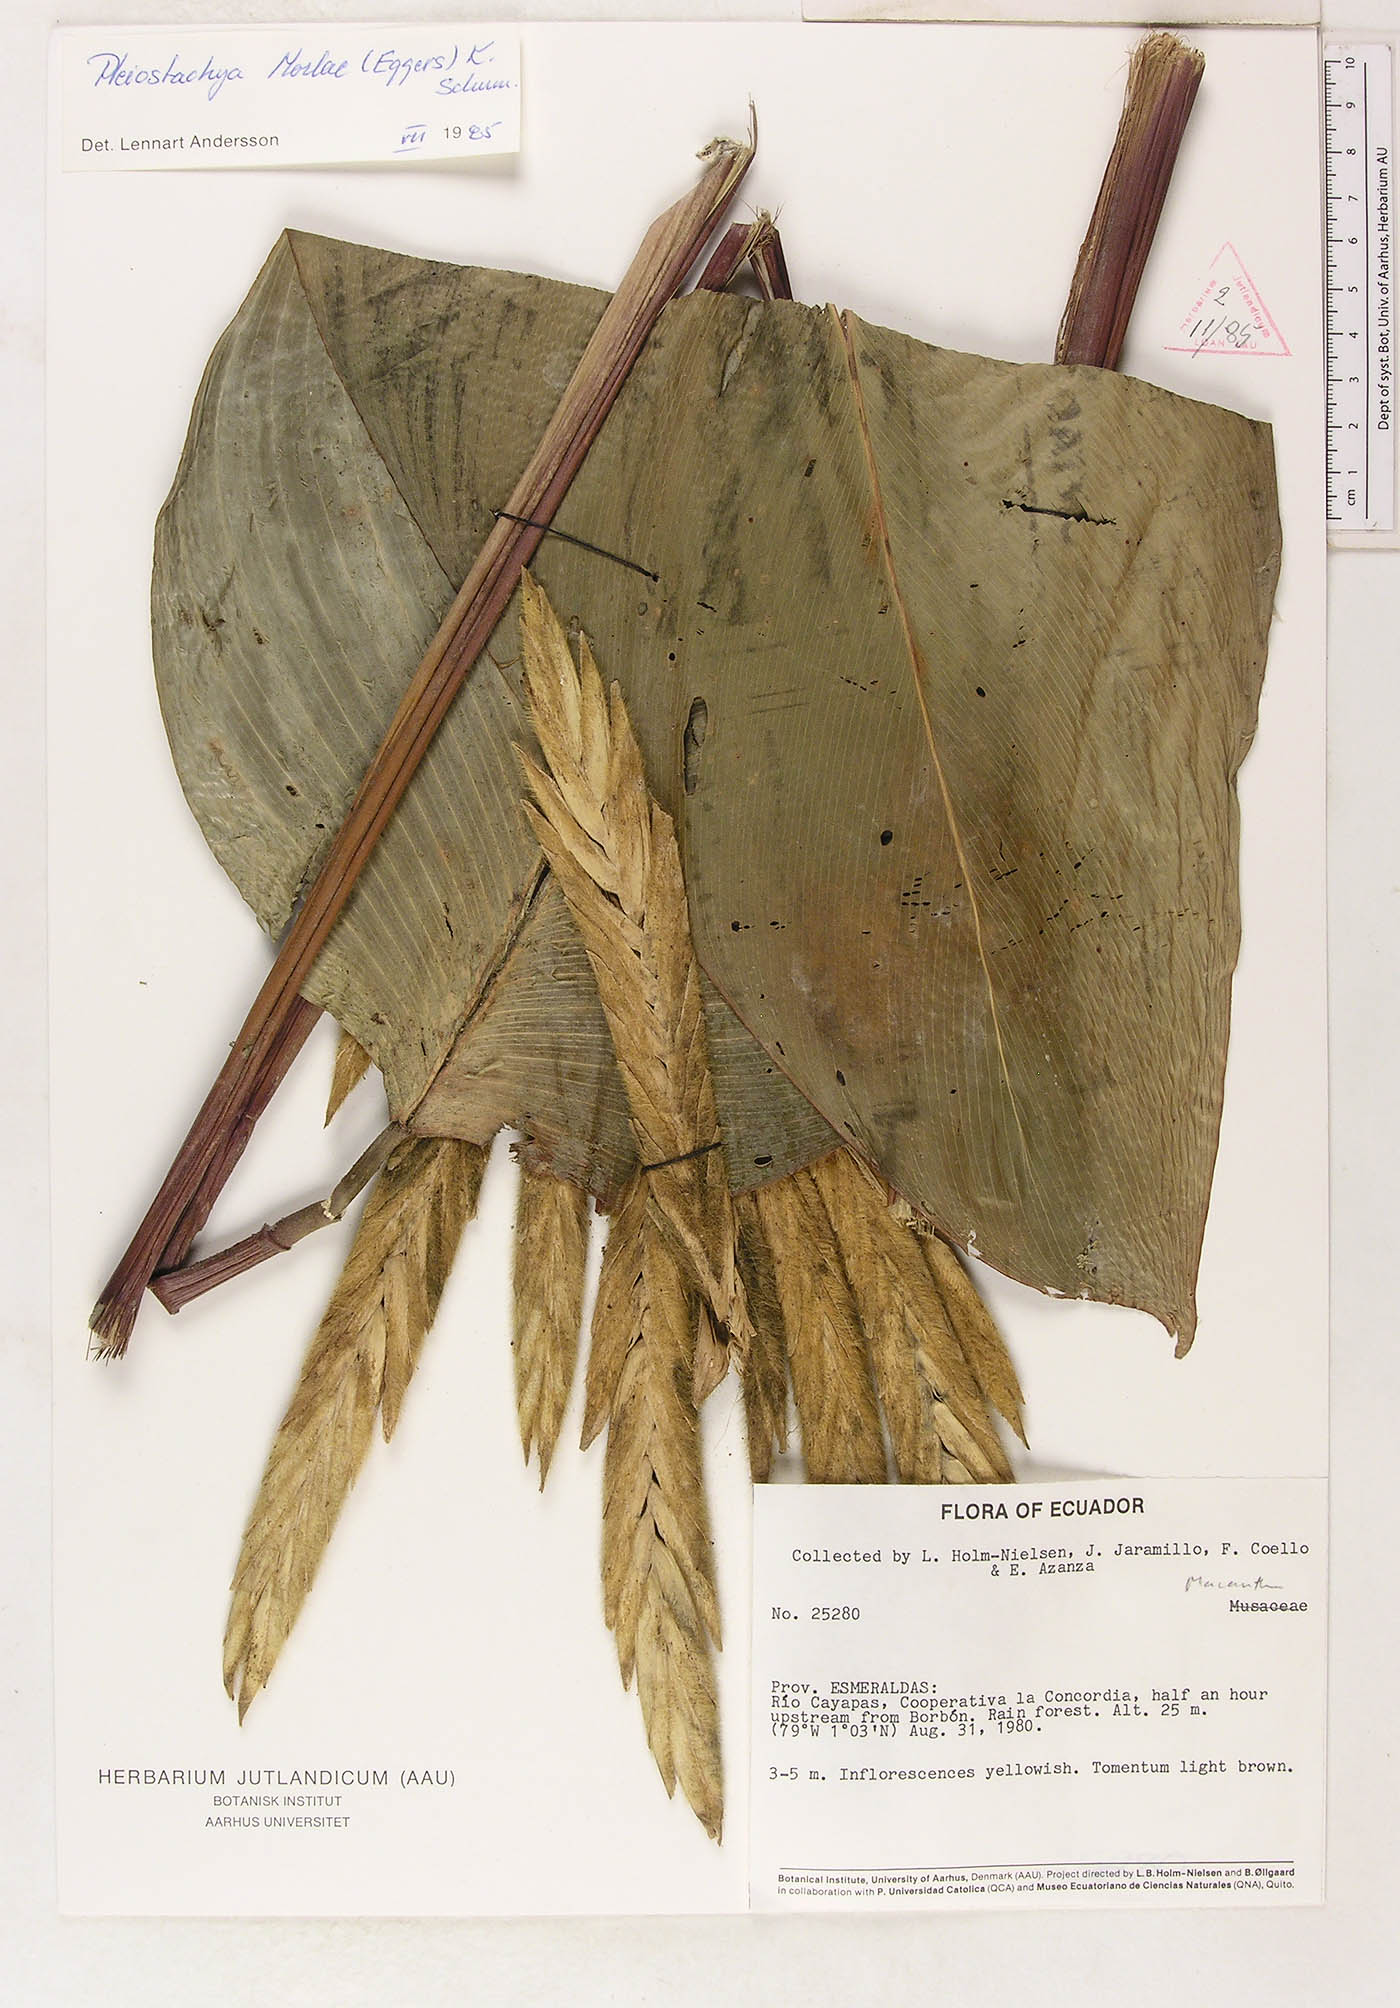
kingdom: Plantae
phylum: Tracheophyta
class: Liliopsida
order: Zingiberales
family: Marantaceae
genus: Pleiostachya
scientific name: Pleiostachya pruinosa
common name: Prayer plant
